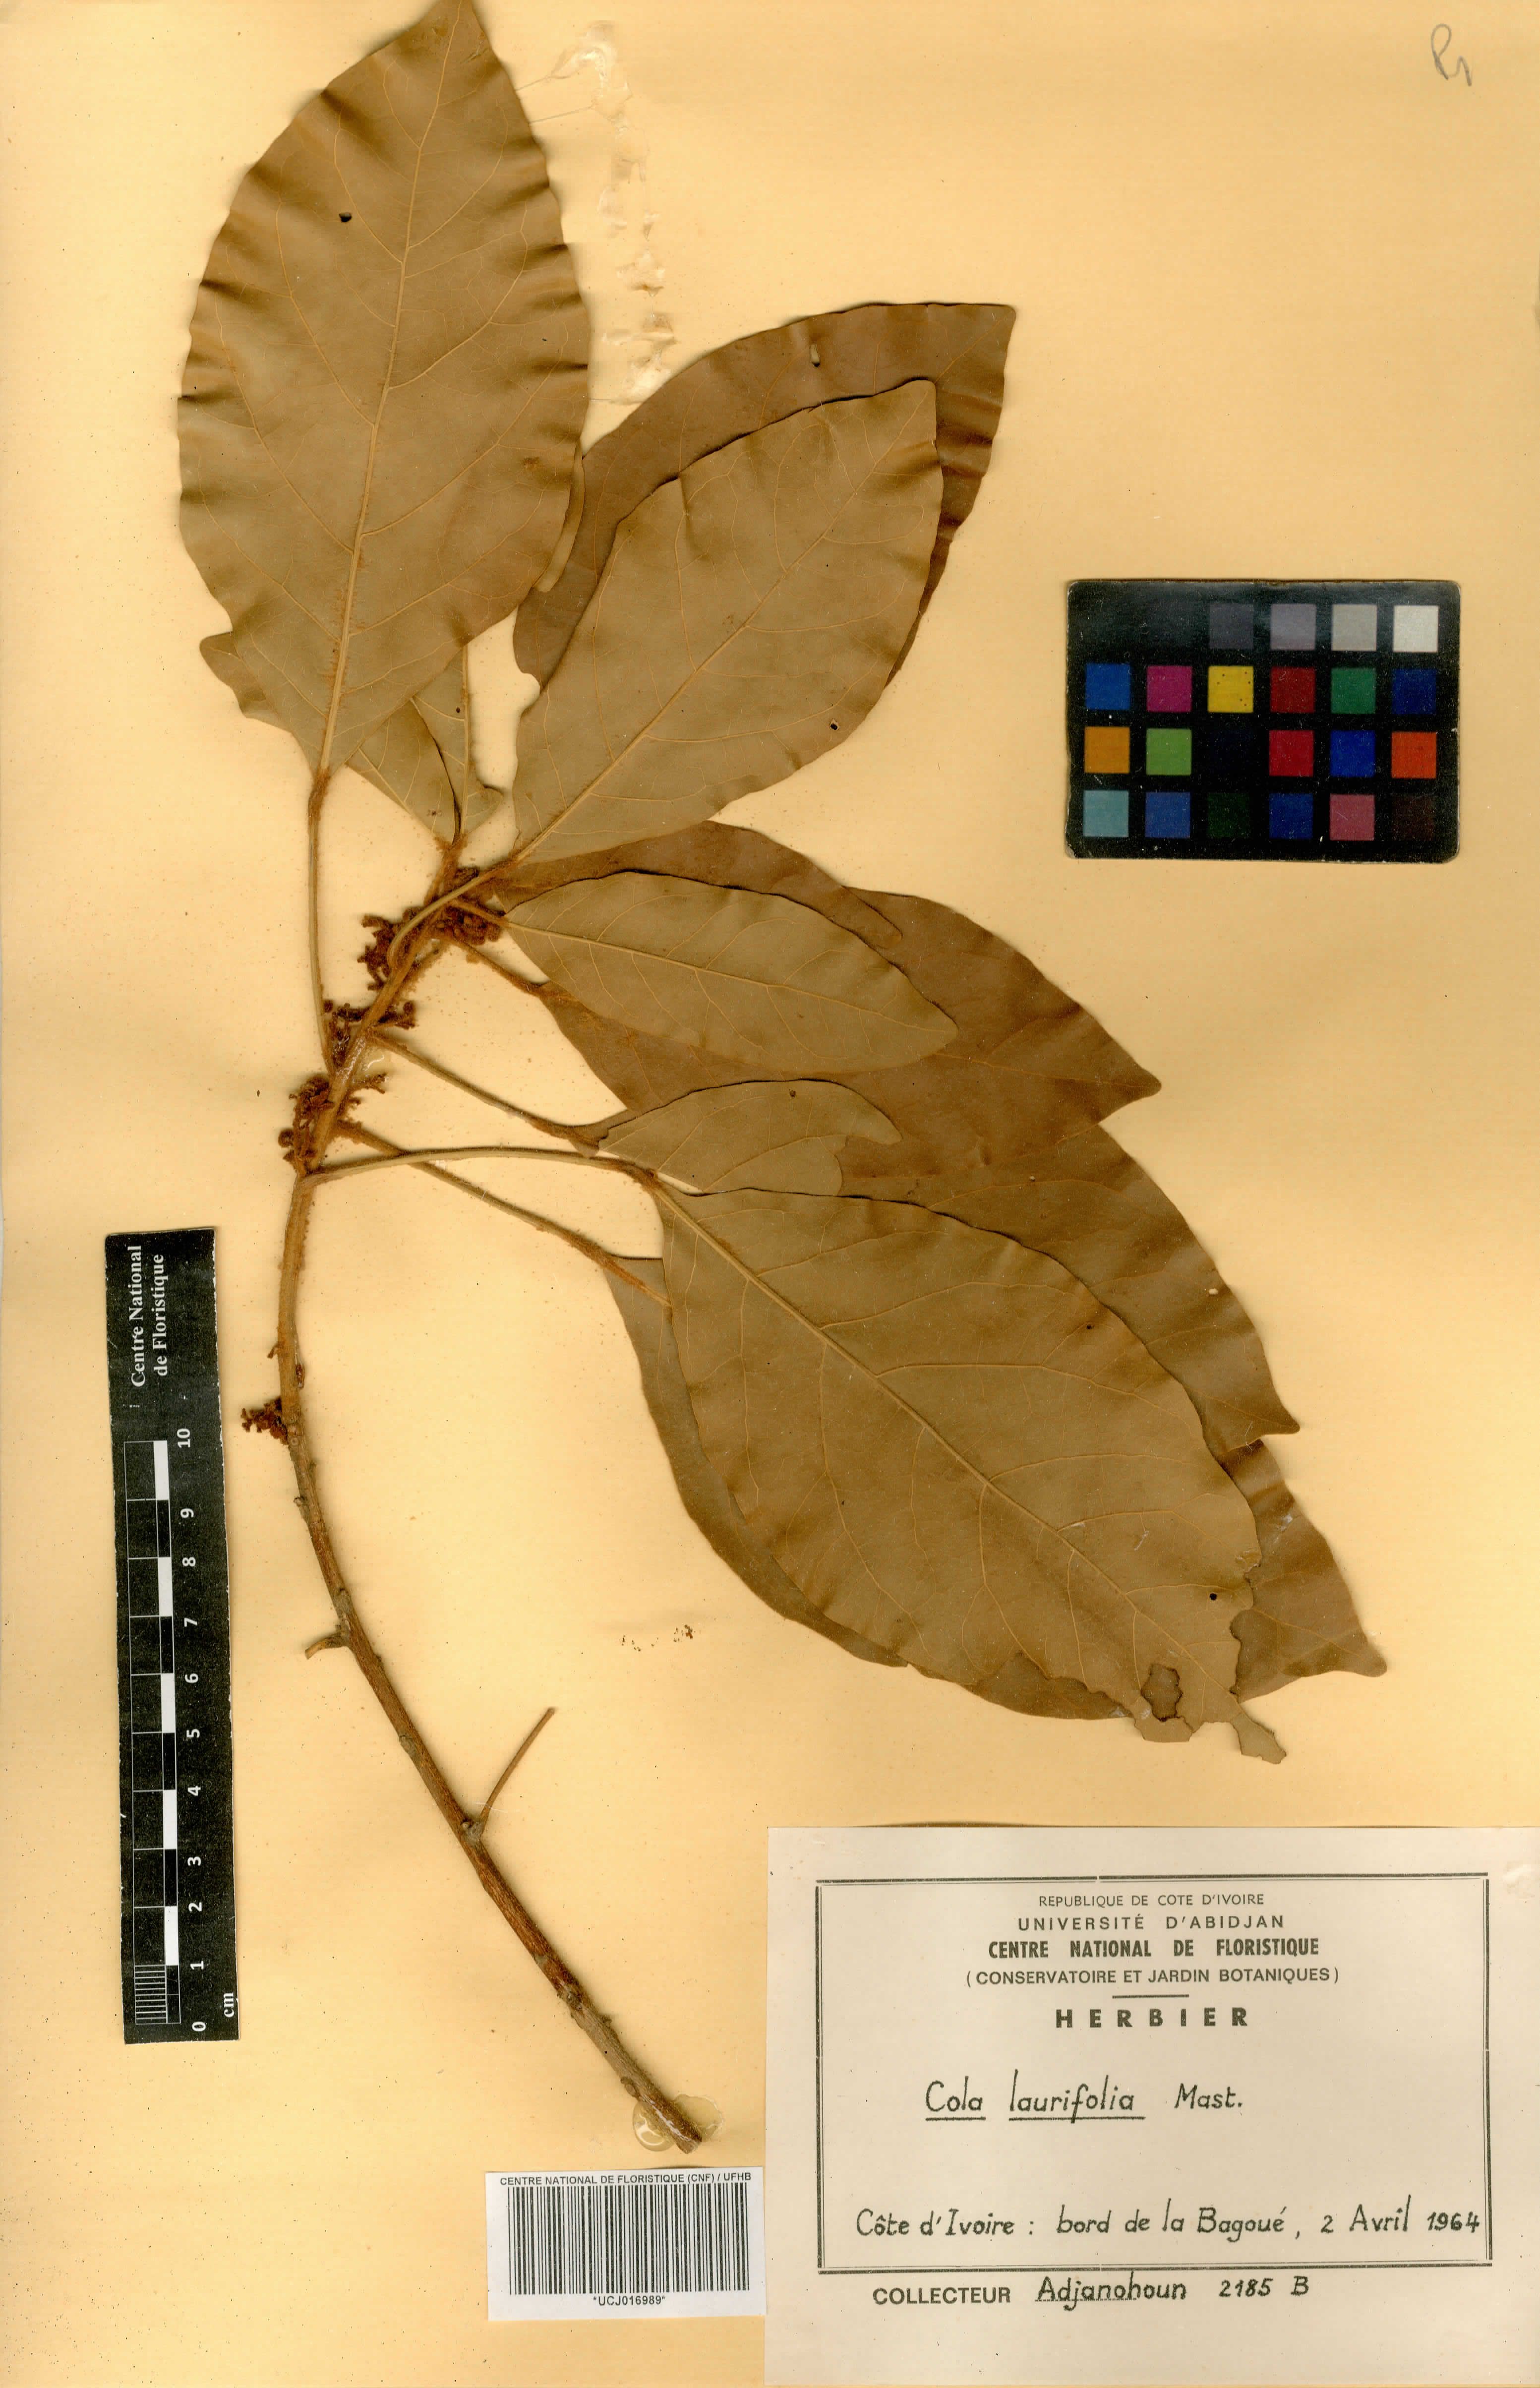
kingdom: Plantae
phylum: Tracheophyta
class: Magnoliopsida
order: Malvales
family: Malvaceae
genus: Cola
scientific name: Cola laurifolia
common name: Laurel-leaved kola
